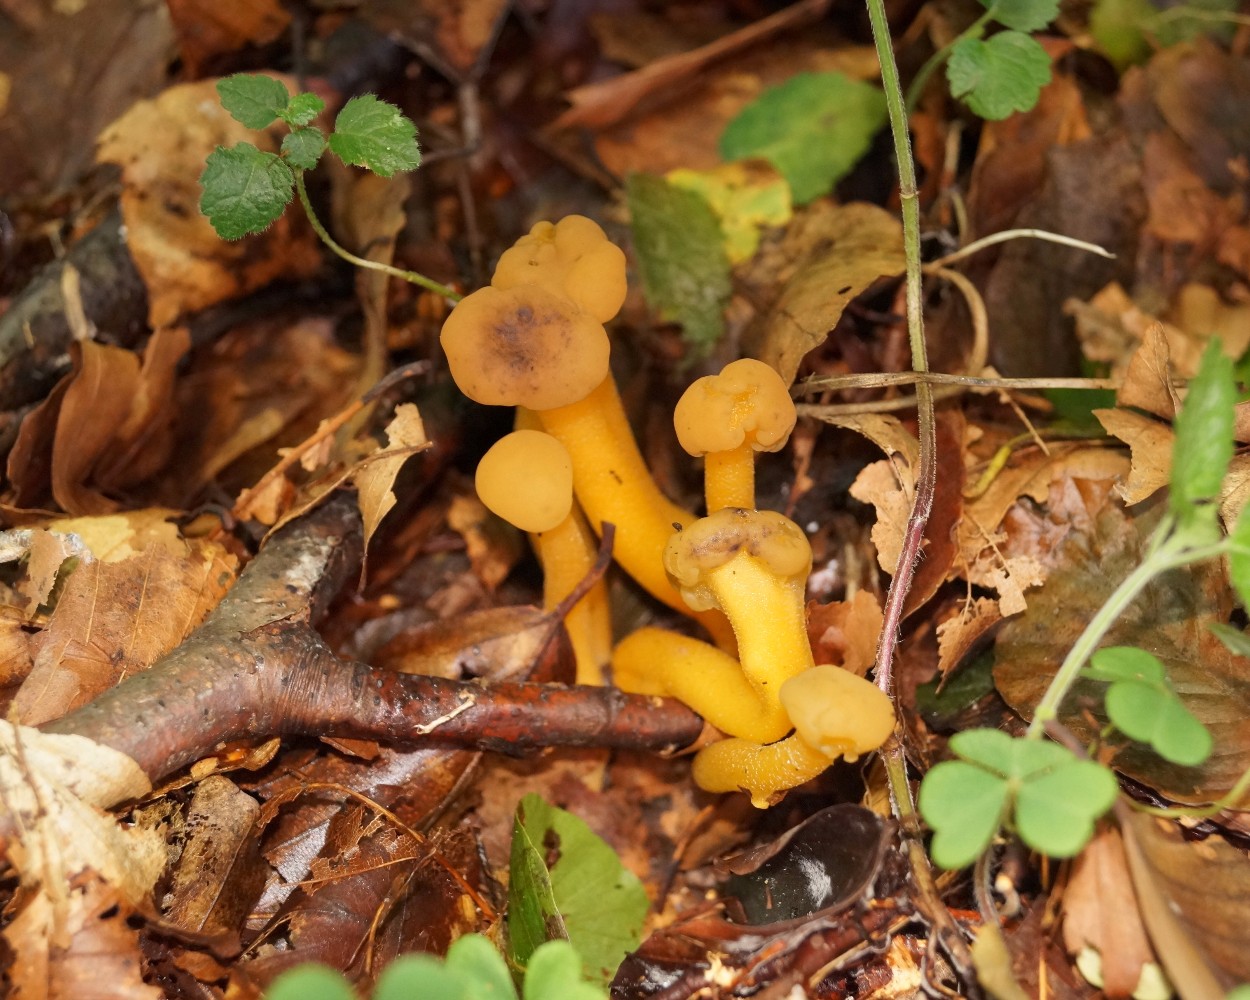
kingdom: Fungi
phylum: Ascomycota
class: Leotiomycetes
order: Leotiales
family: Leotiaceae
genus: Leotia
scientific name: Leotia lubrica
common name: ravsvamp
